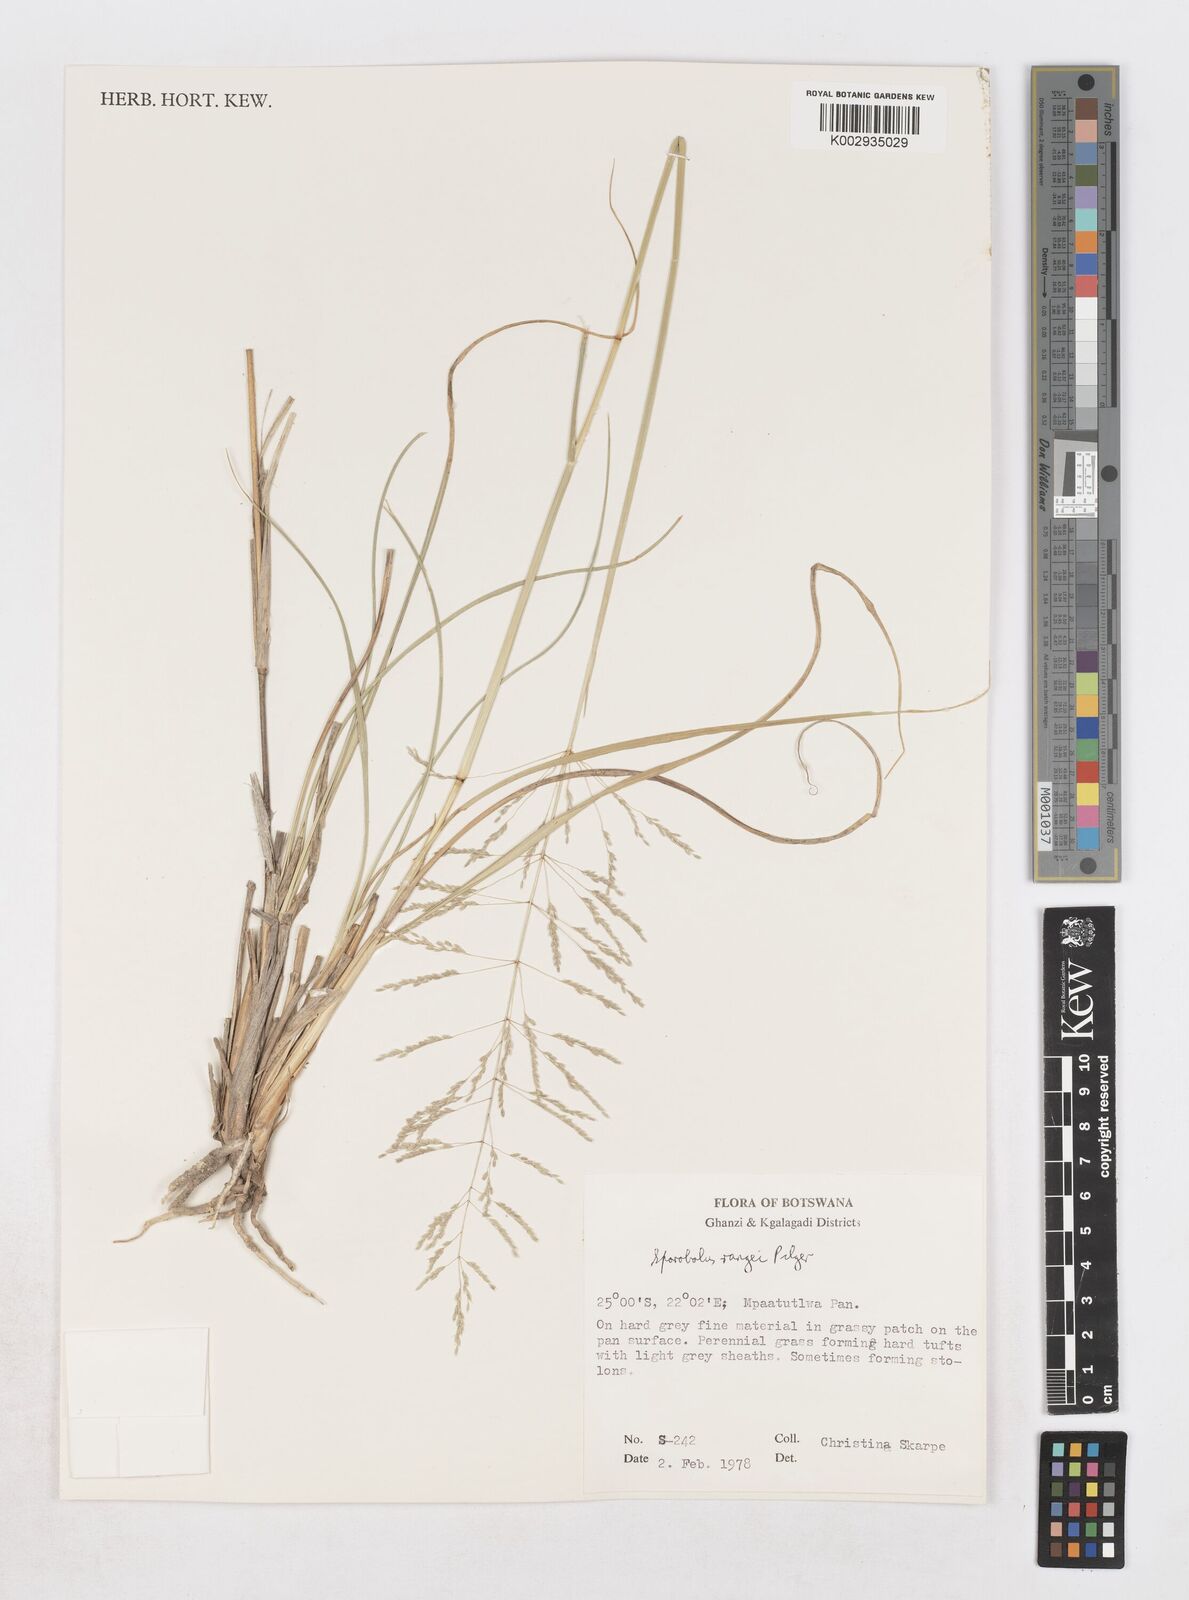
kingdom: Plantae
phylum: Tracheophyta
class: Liliopsida
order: Poales
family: Poaceae
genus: Sporobolus
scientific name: Sporobolus ioclados
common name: Pan dropseed
